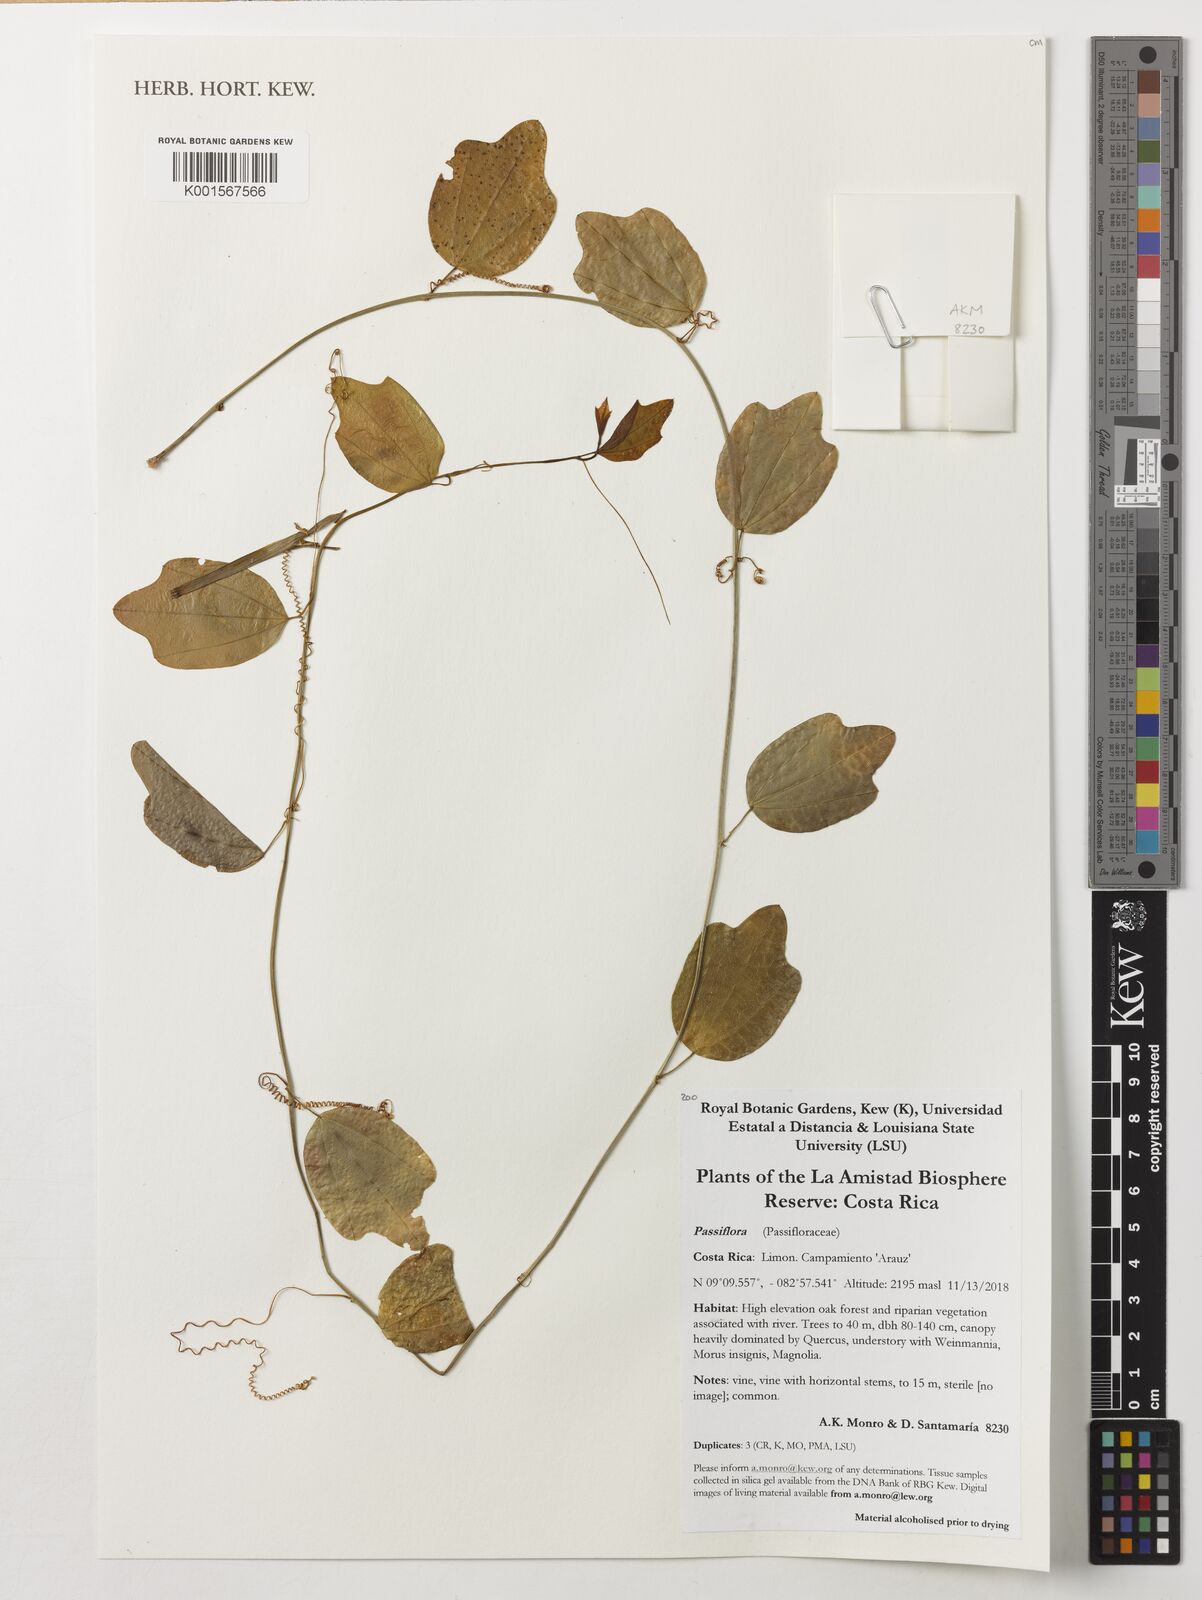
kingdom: Plantae
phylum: Tracheophyta
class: Magnoliopsida
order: Malpighiales
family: Passifloraceae
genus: Passiflora
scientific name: Passiflora
